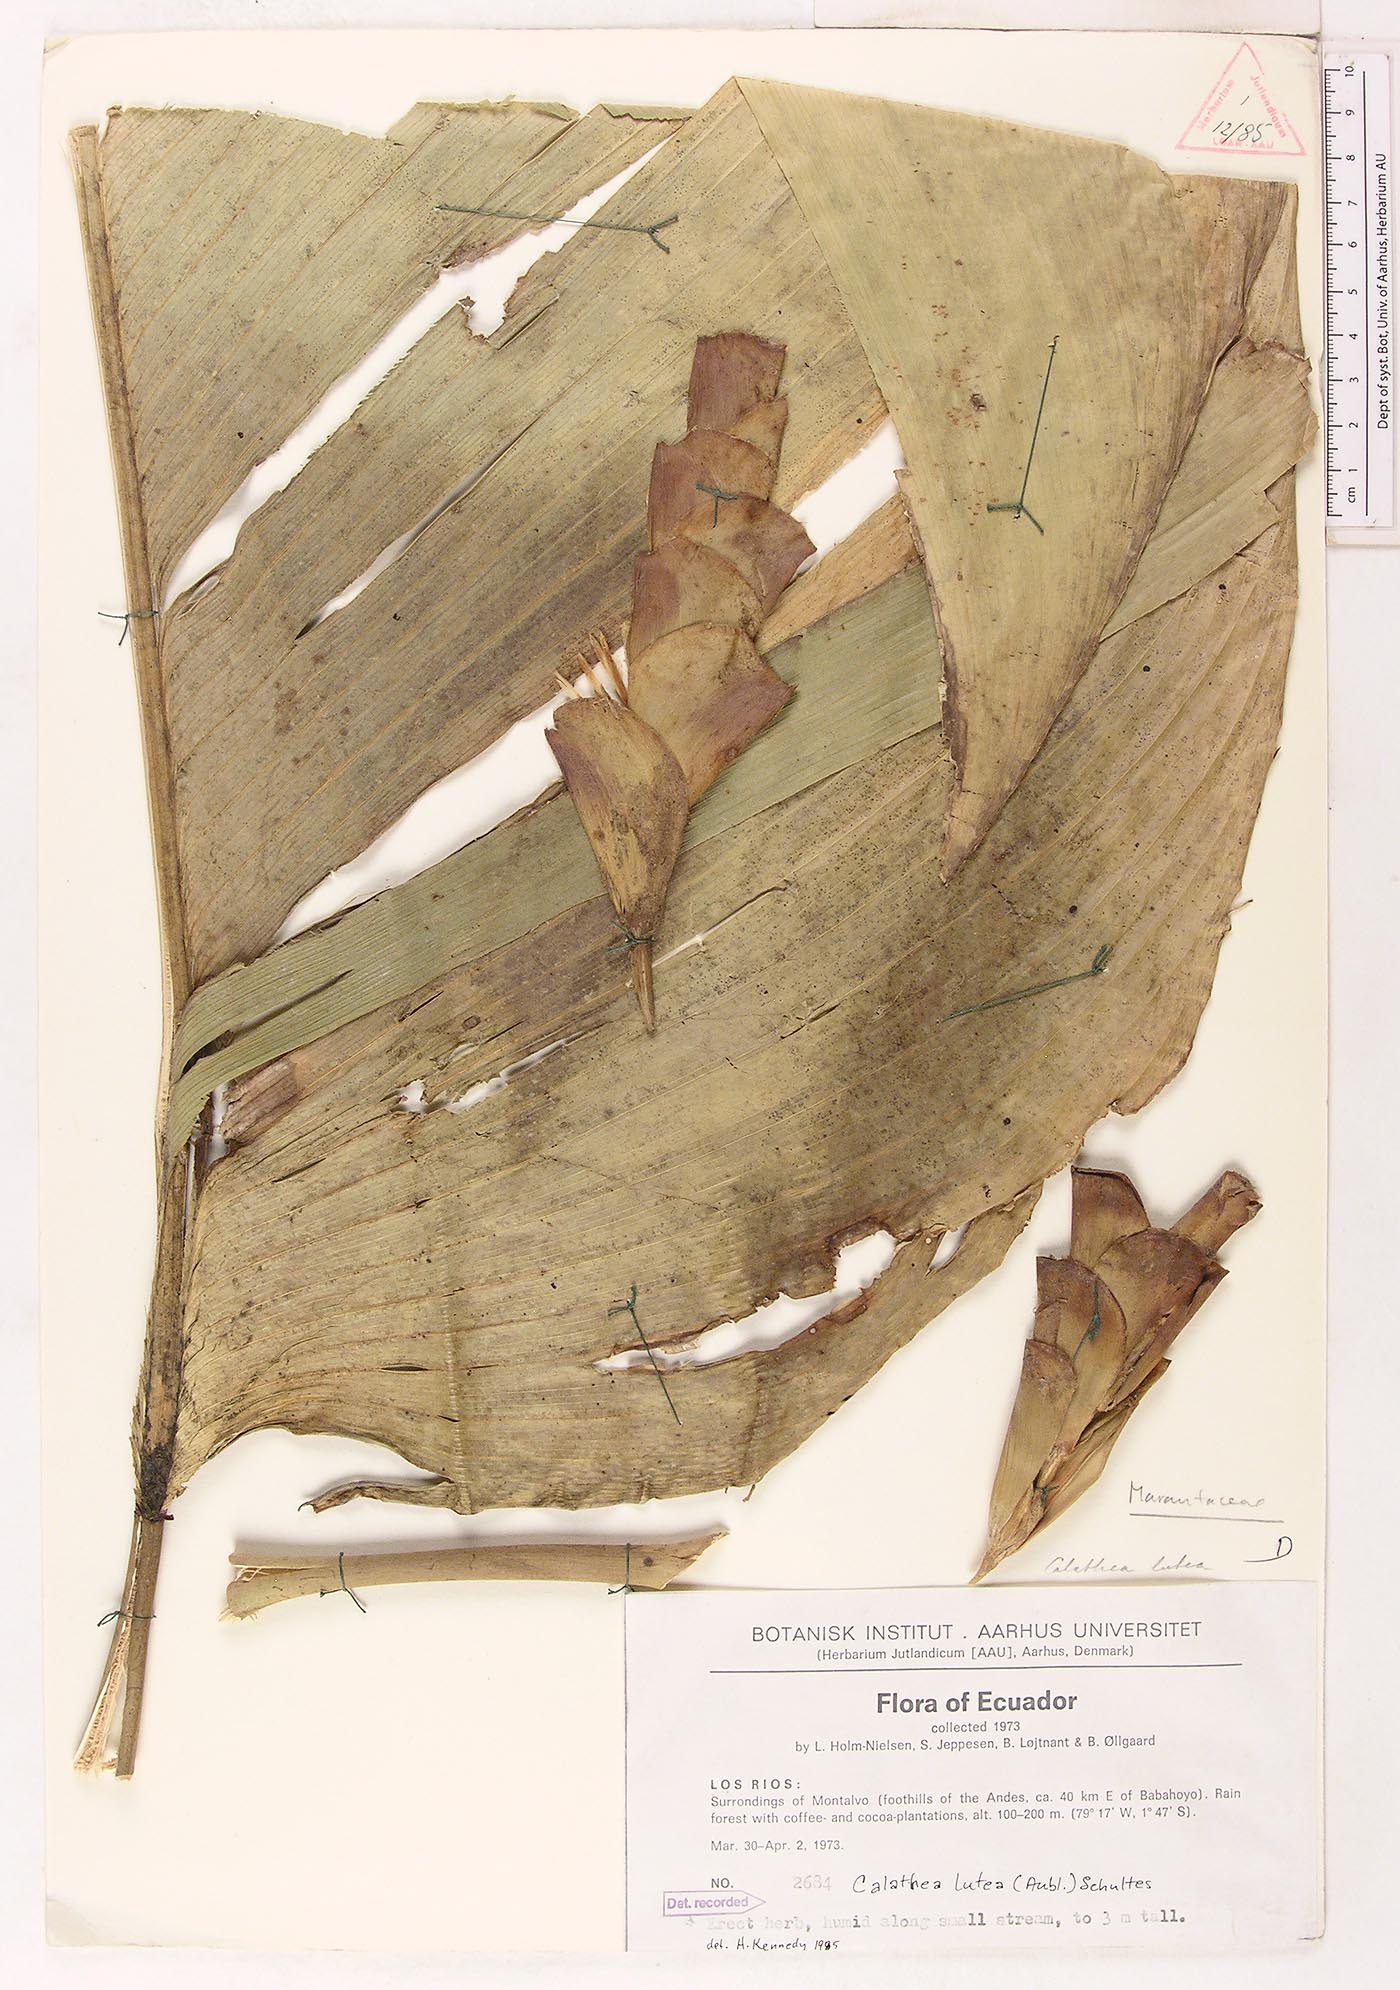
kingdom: Plantae
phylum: Tracheophyta
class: Liliopsida
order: Zingiberales
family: Marantaceae
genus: Calathea
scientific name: Calathea lutea
